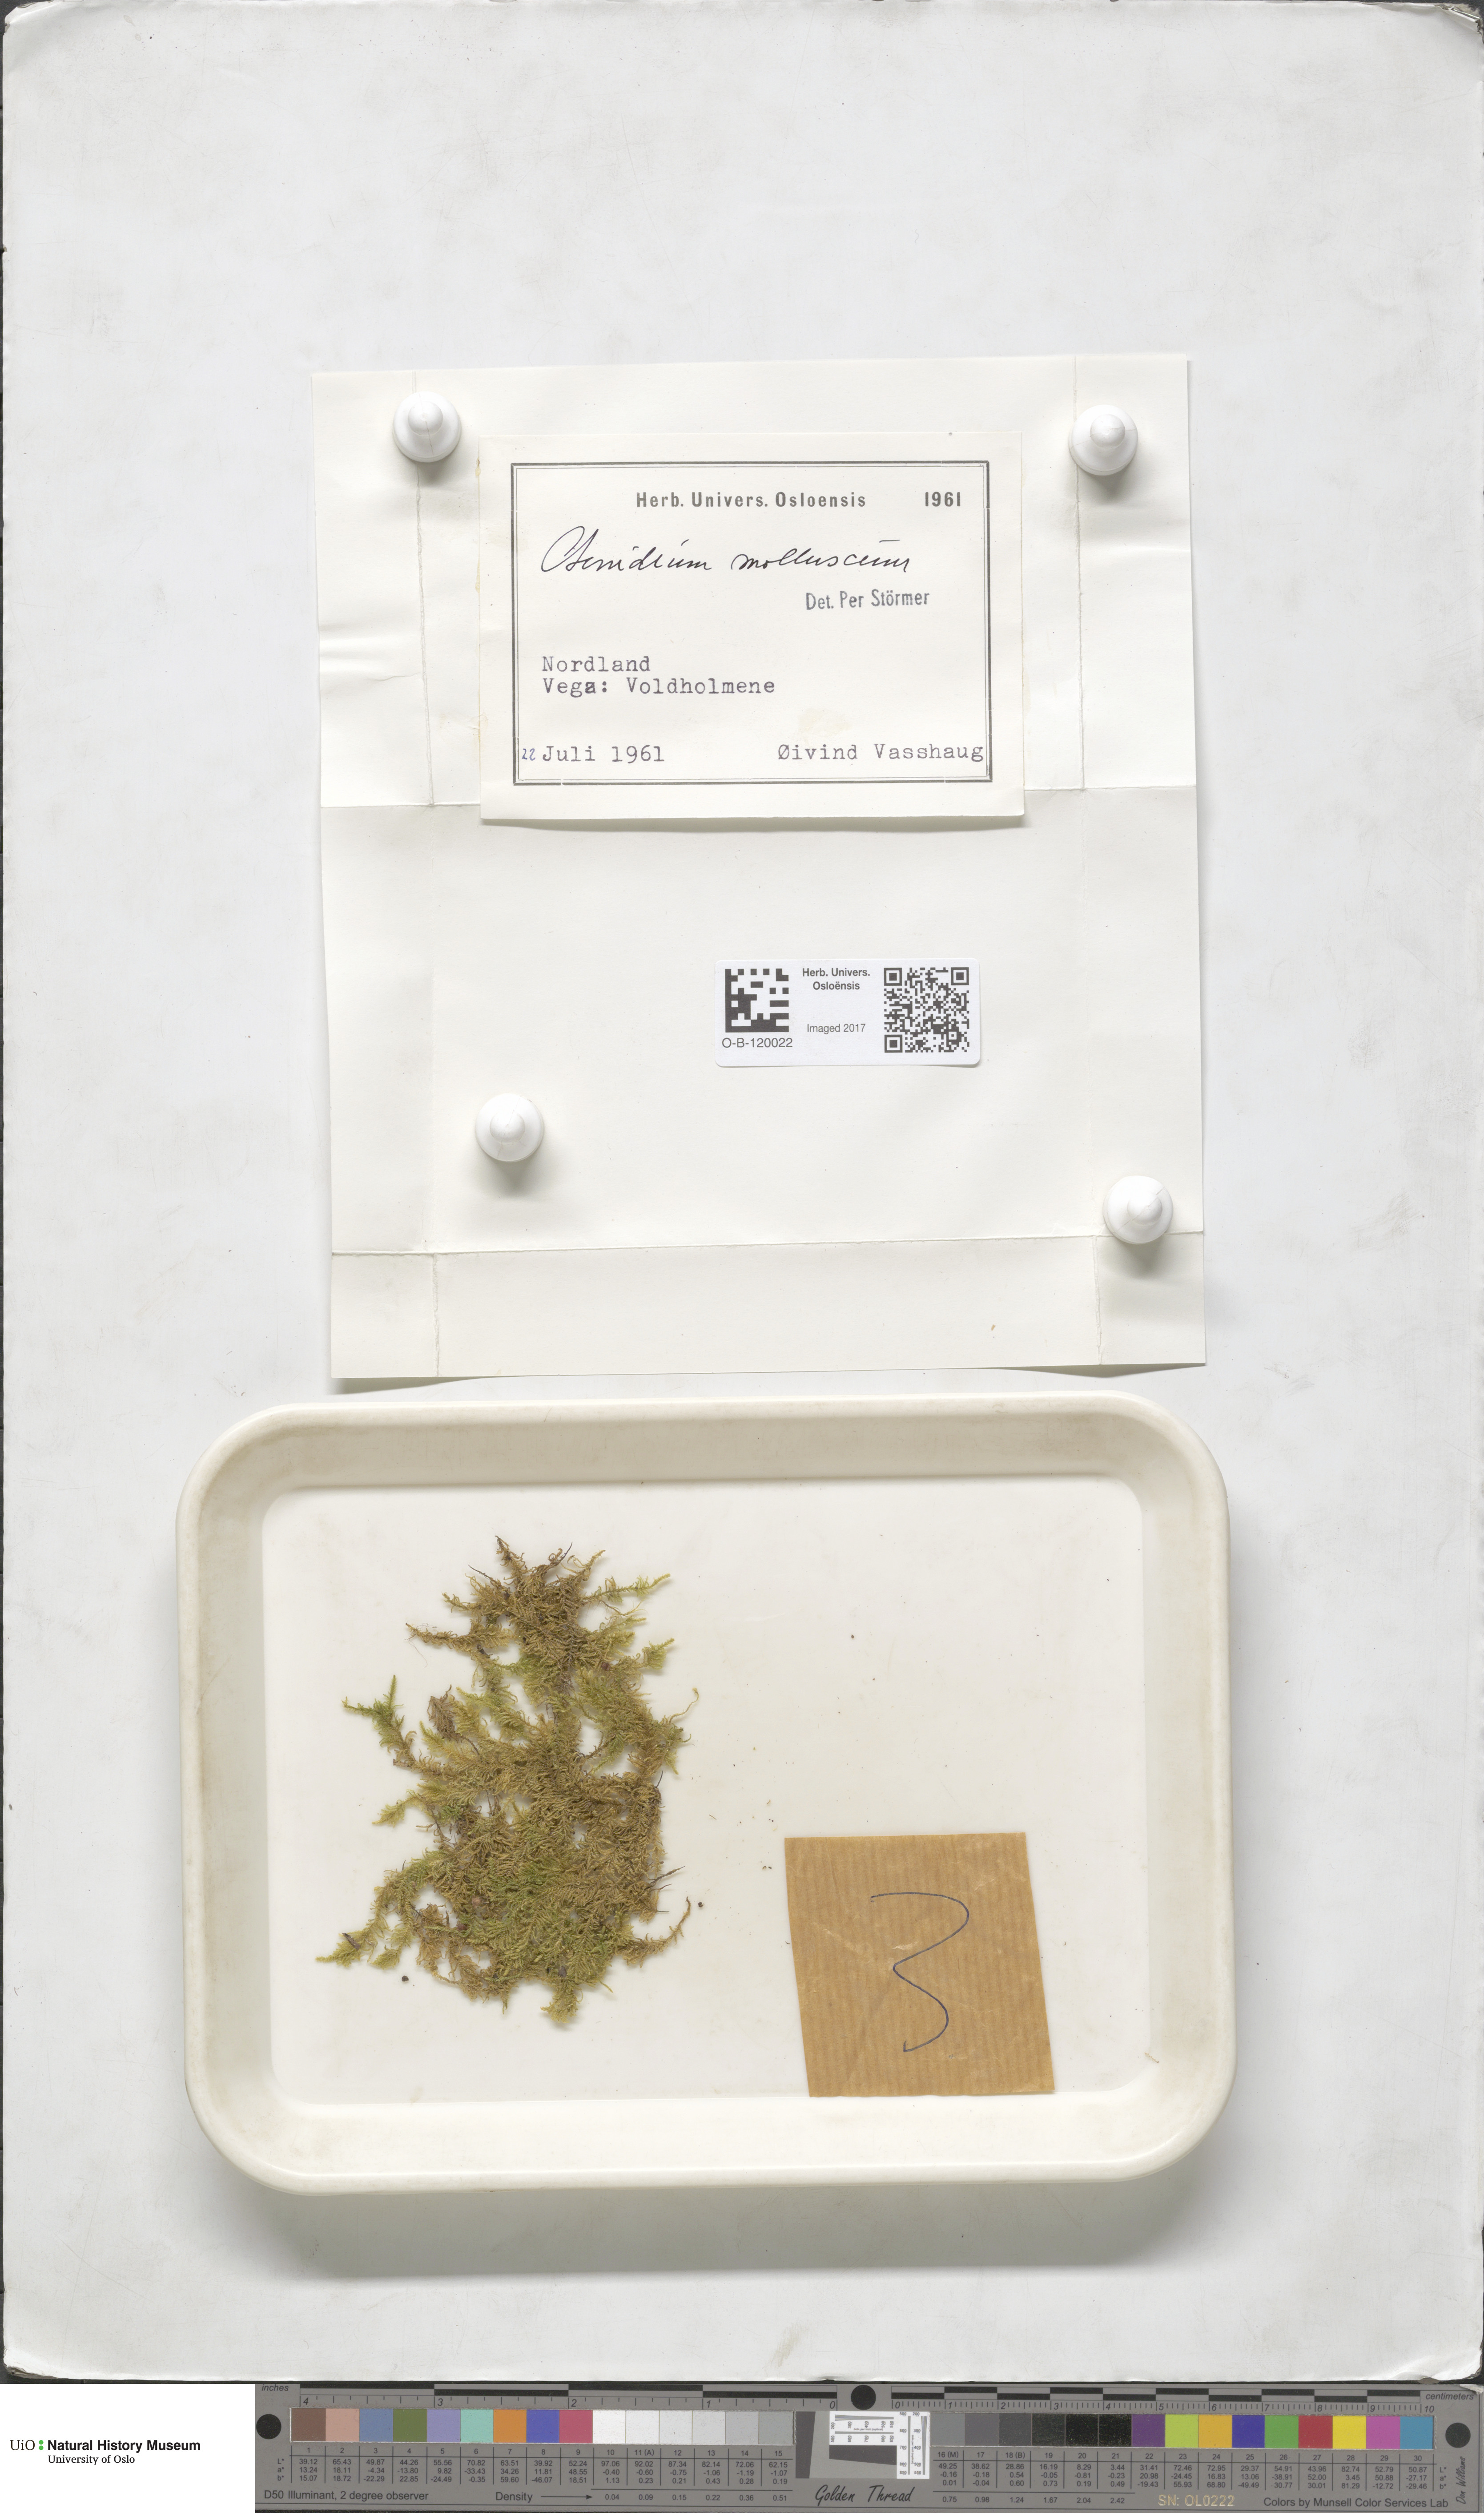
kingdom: Plantae
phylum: Bryophyta
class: Bryopsida
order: Hypnales
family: Myuriaceae
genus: Ctenidium
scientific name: Ctenidium molluscum
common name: Chalk comb-moss
